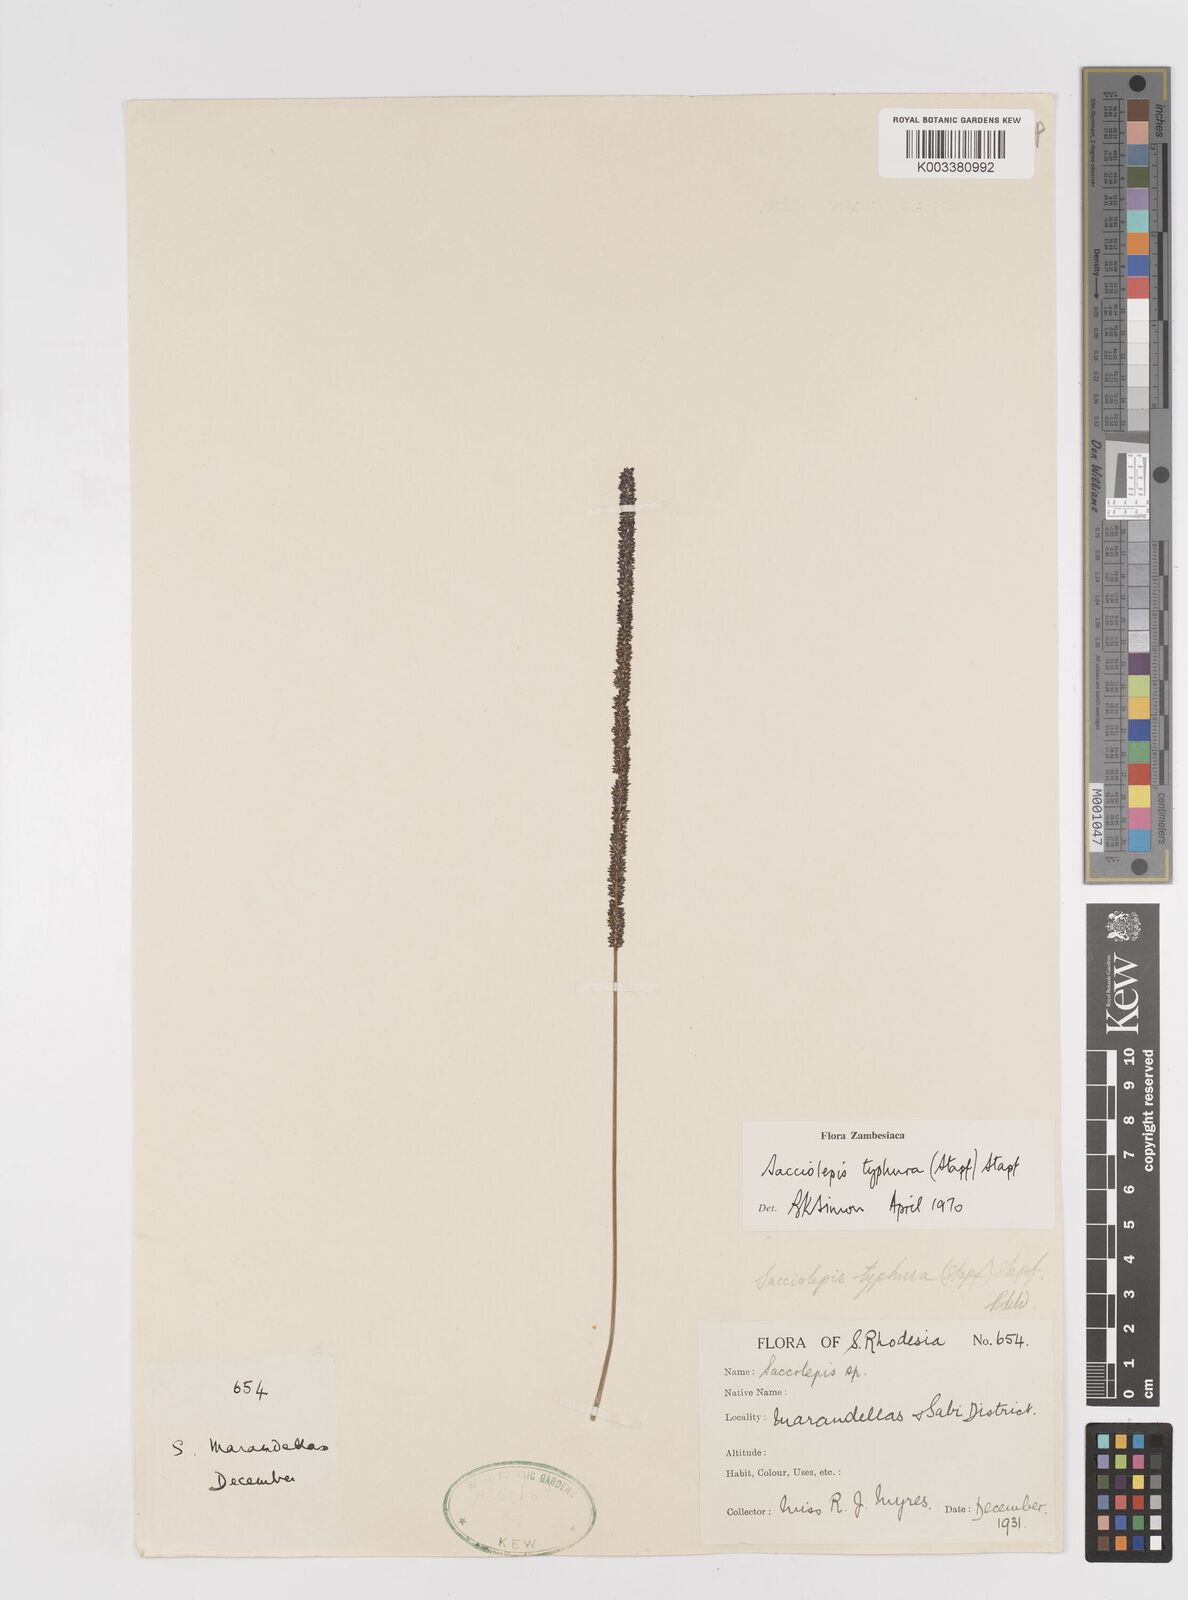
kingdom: Plantae
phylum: Tracheophyta
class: Liliopsida
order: Poales
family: Poaceae
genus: Sacciolepis
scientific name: Sacciolepis typhura
